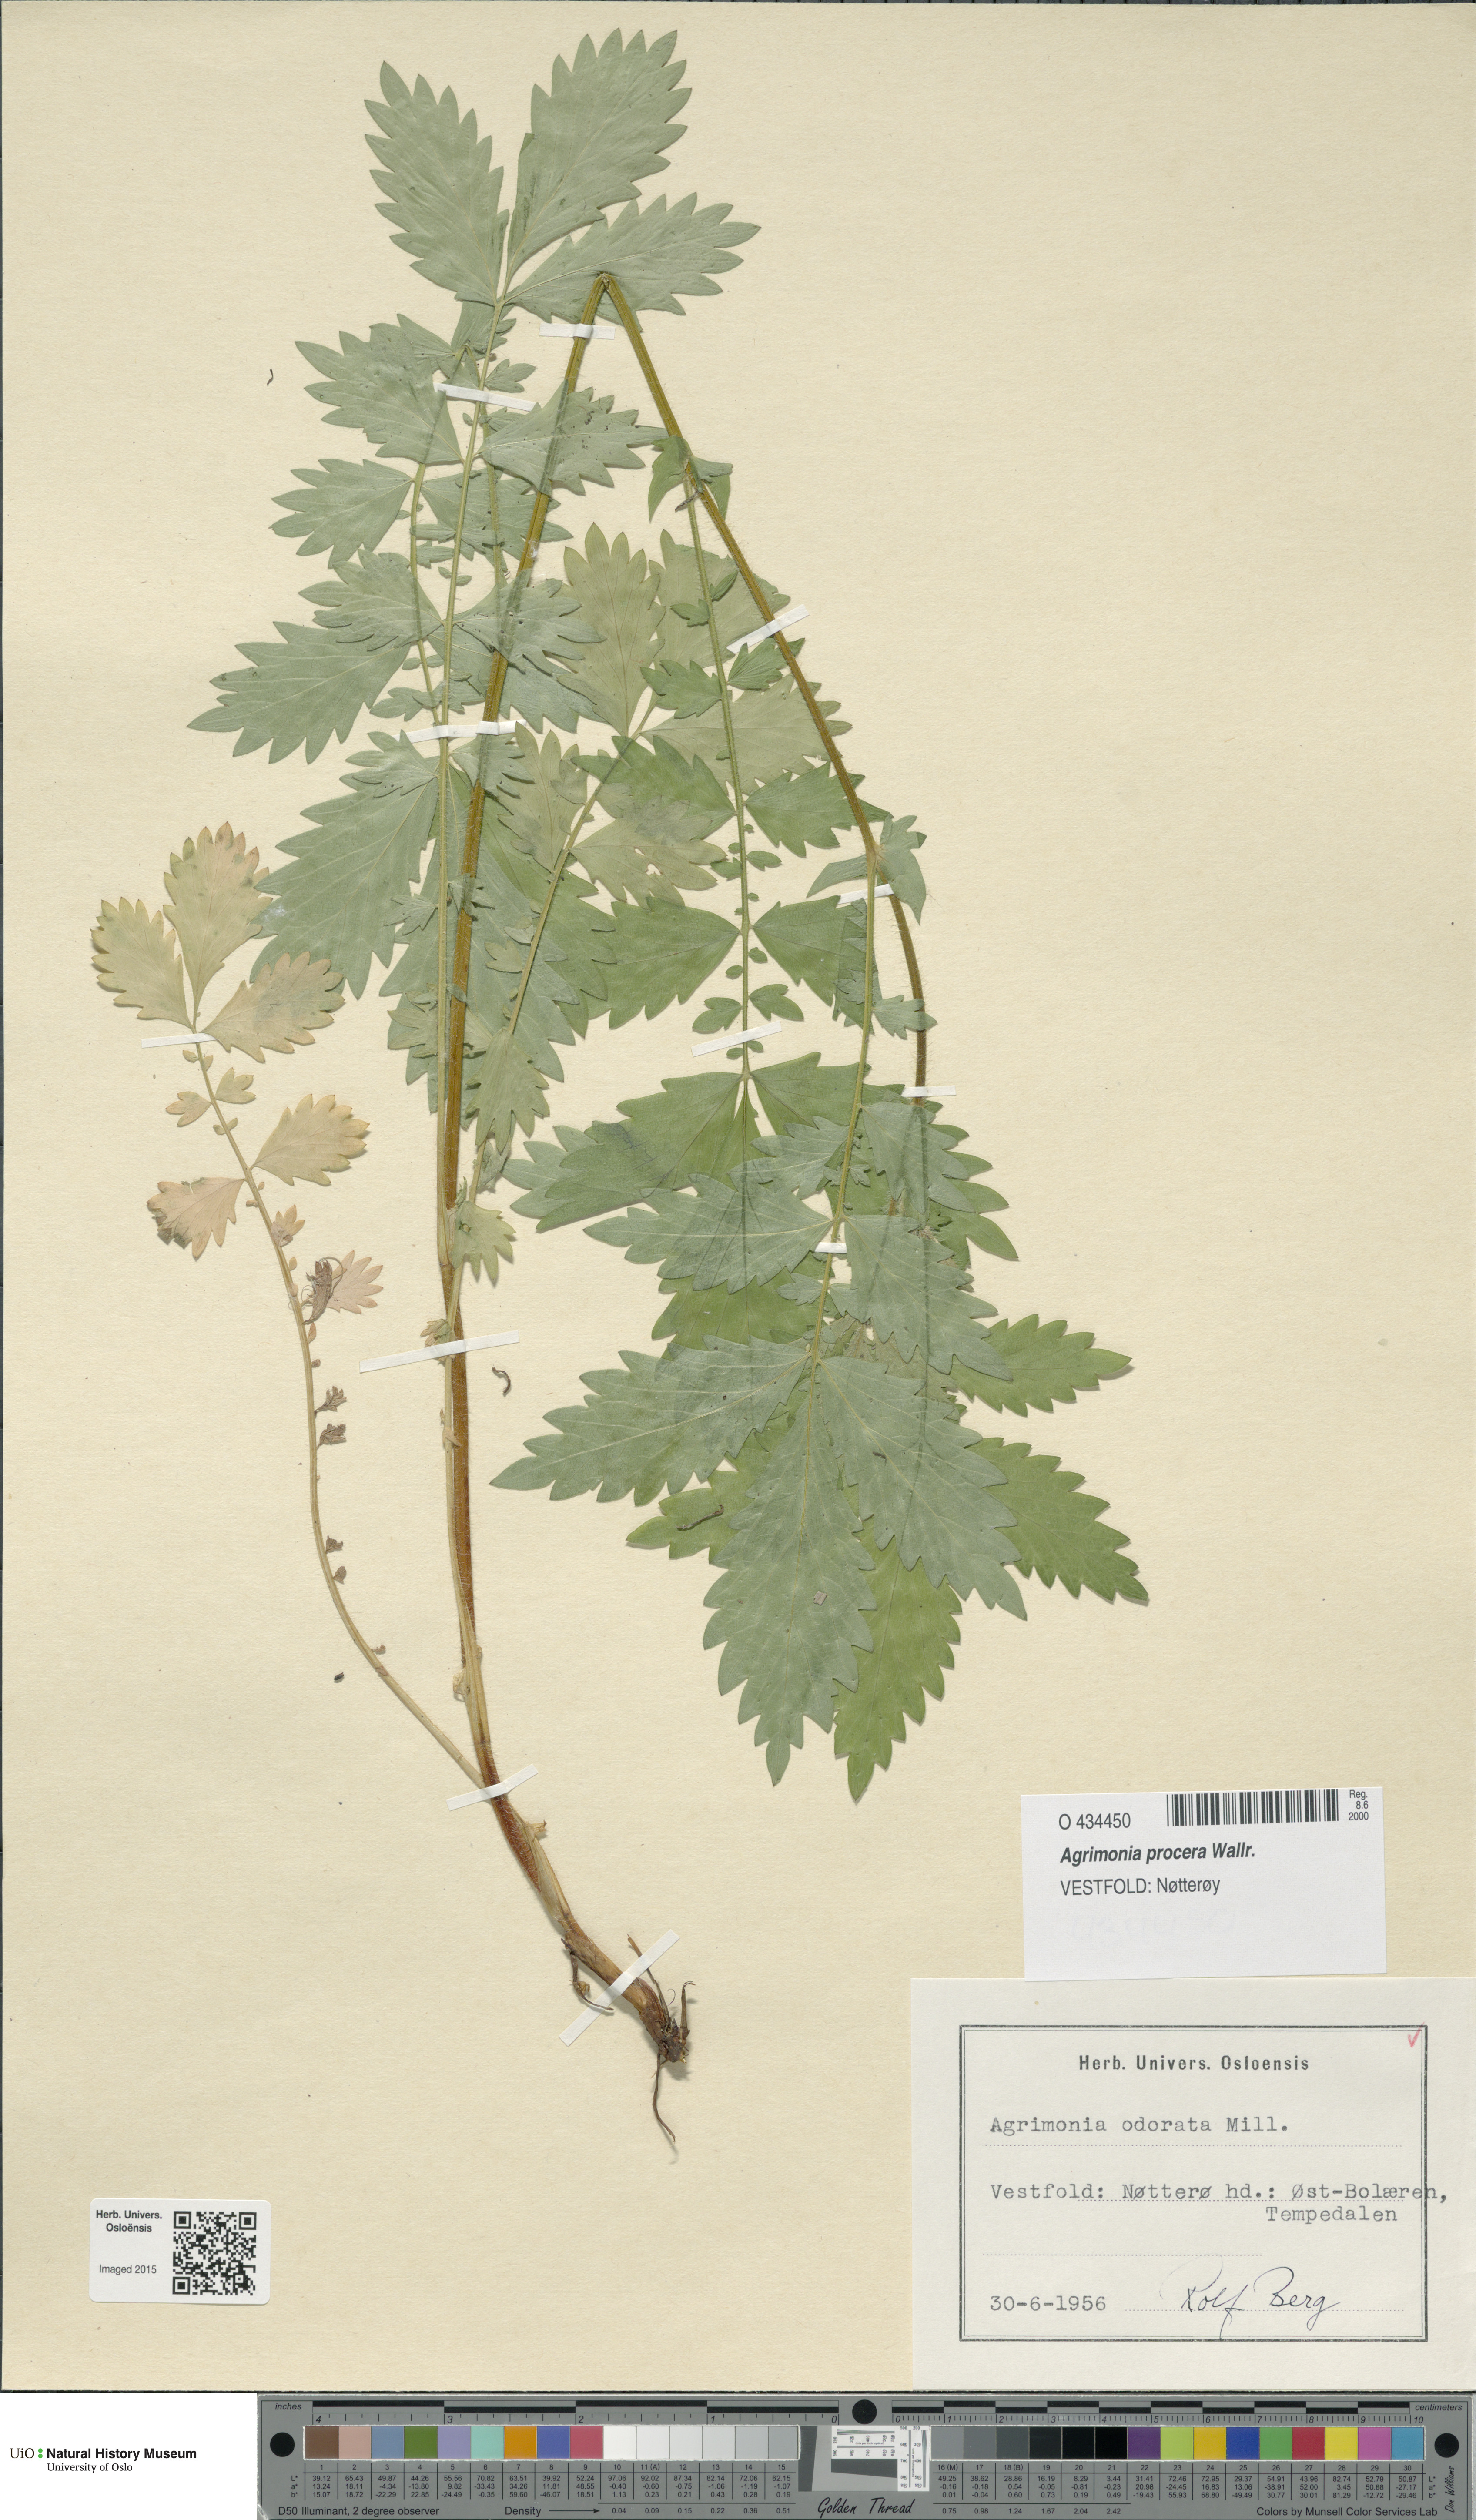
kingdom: Plantae
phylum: Tracheophyta
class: Magnoliopsida
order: Rosales
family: Rosaceae
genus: Agrimonia
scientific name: Agrimonia procera
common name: Fragrant agrimony
